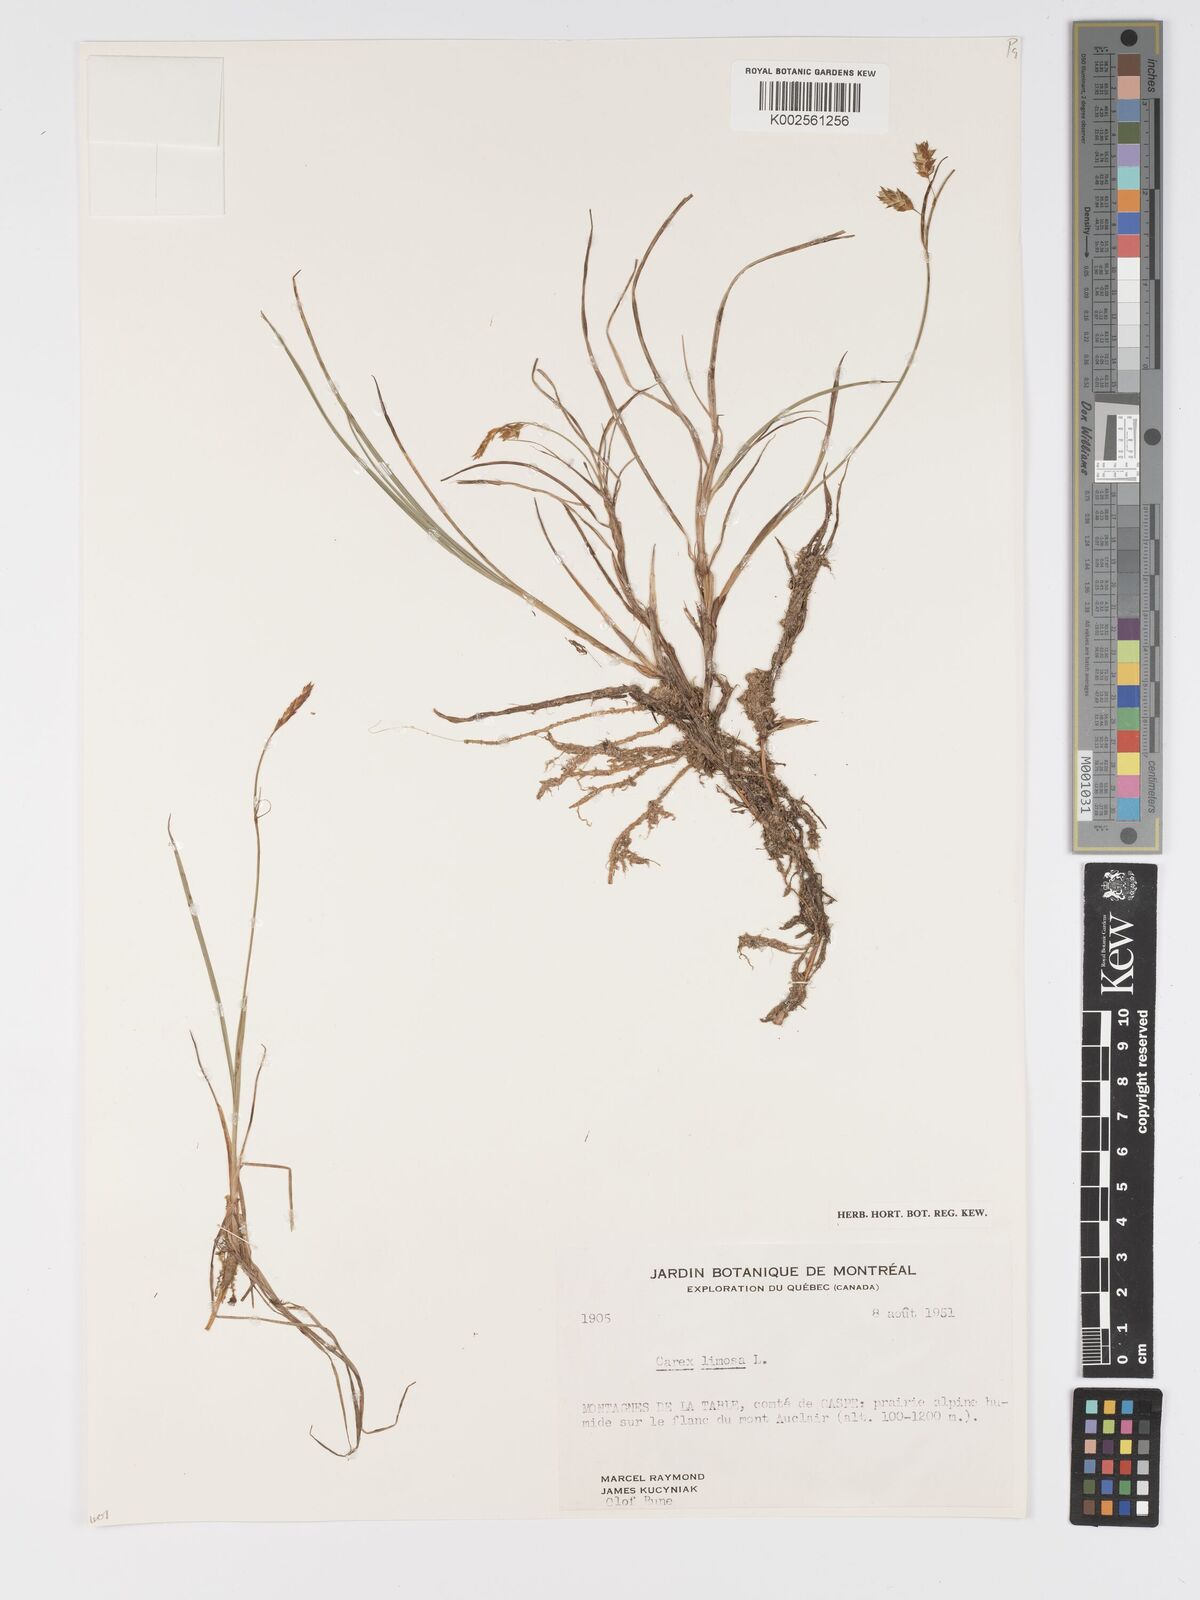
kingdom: Plantae
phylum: Tracheophyta
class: Liliopsida
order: Poales
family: Cyperaceae
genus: Carex
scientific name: Carex limosa
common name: Bog sedge
